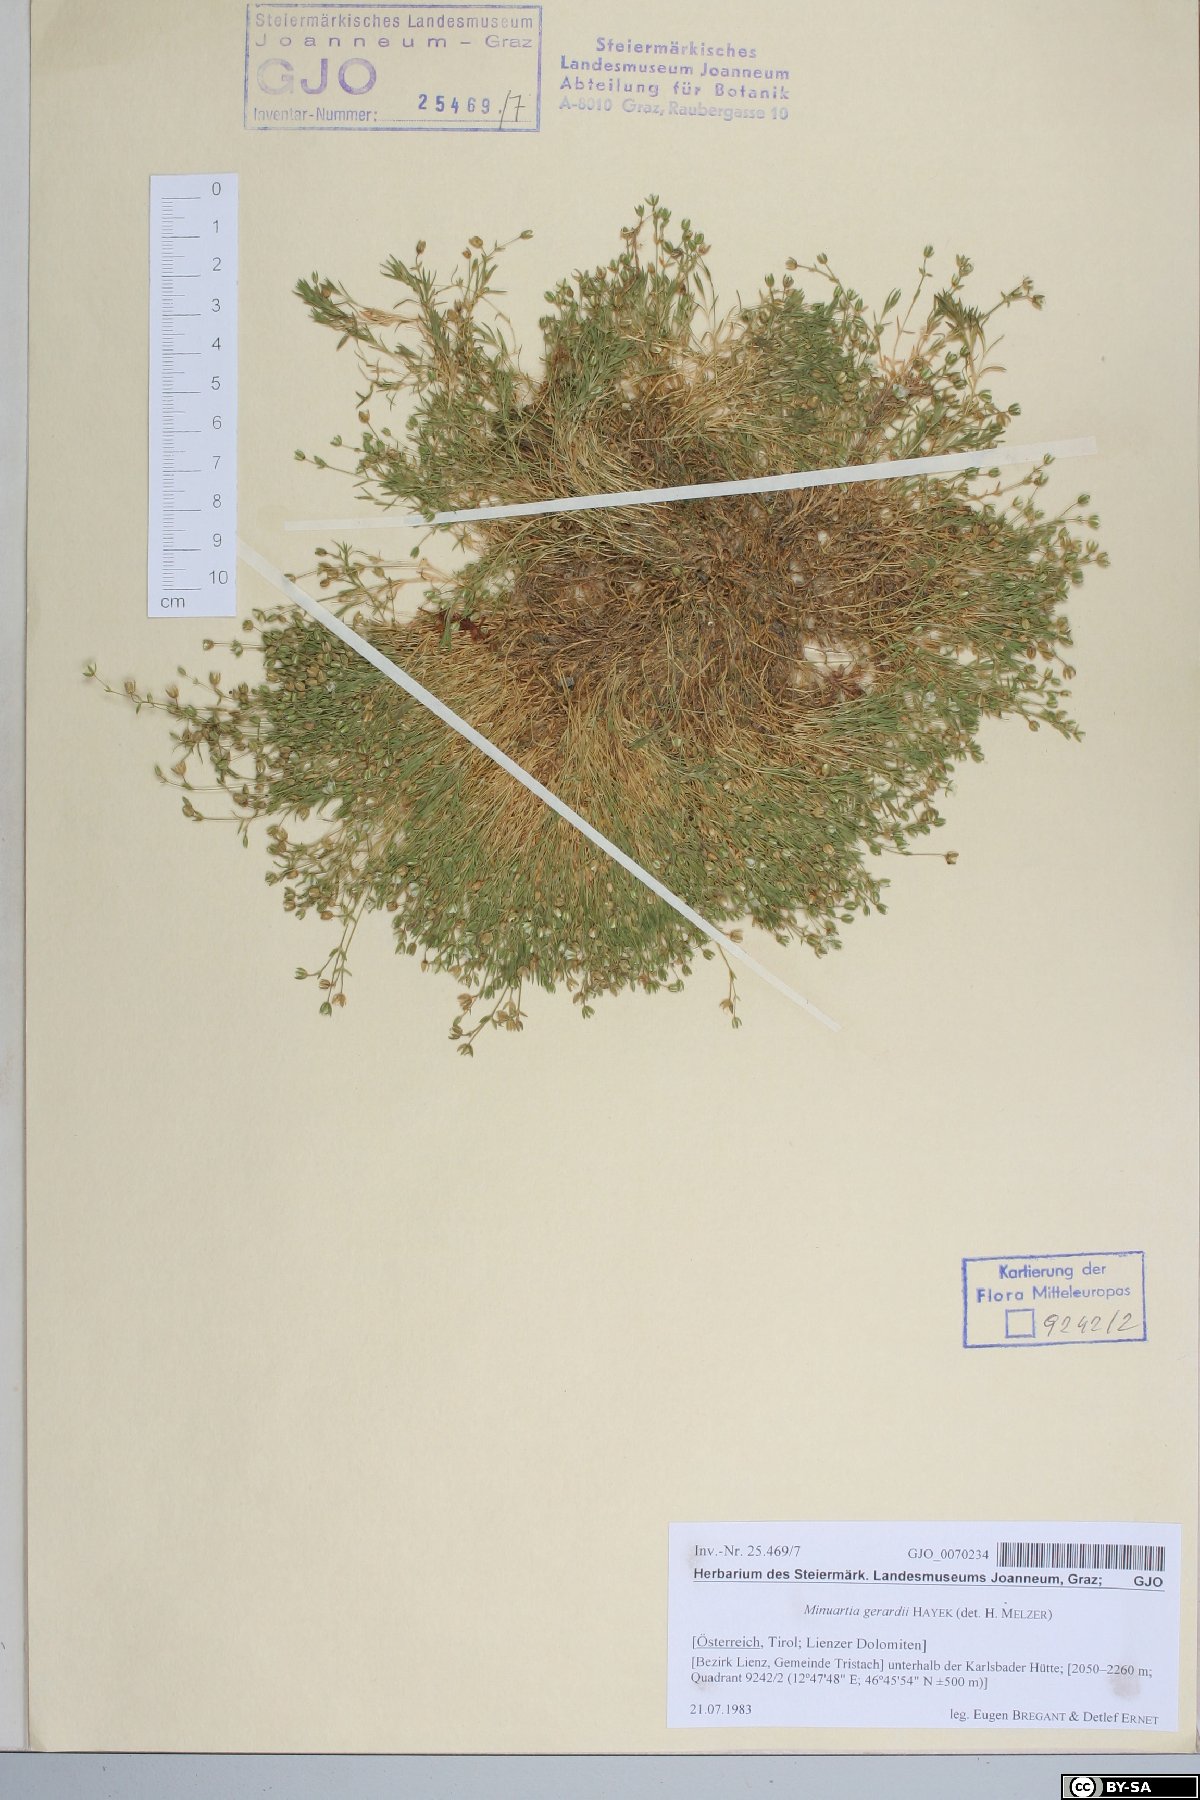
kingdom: Plantae
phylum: Tracheophyta
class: Magnoliopsida
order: Caryophyllales
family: Caryophyllaceae
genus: Sabulina
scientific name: Sabulina verna
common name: Spring sandwort
